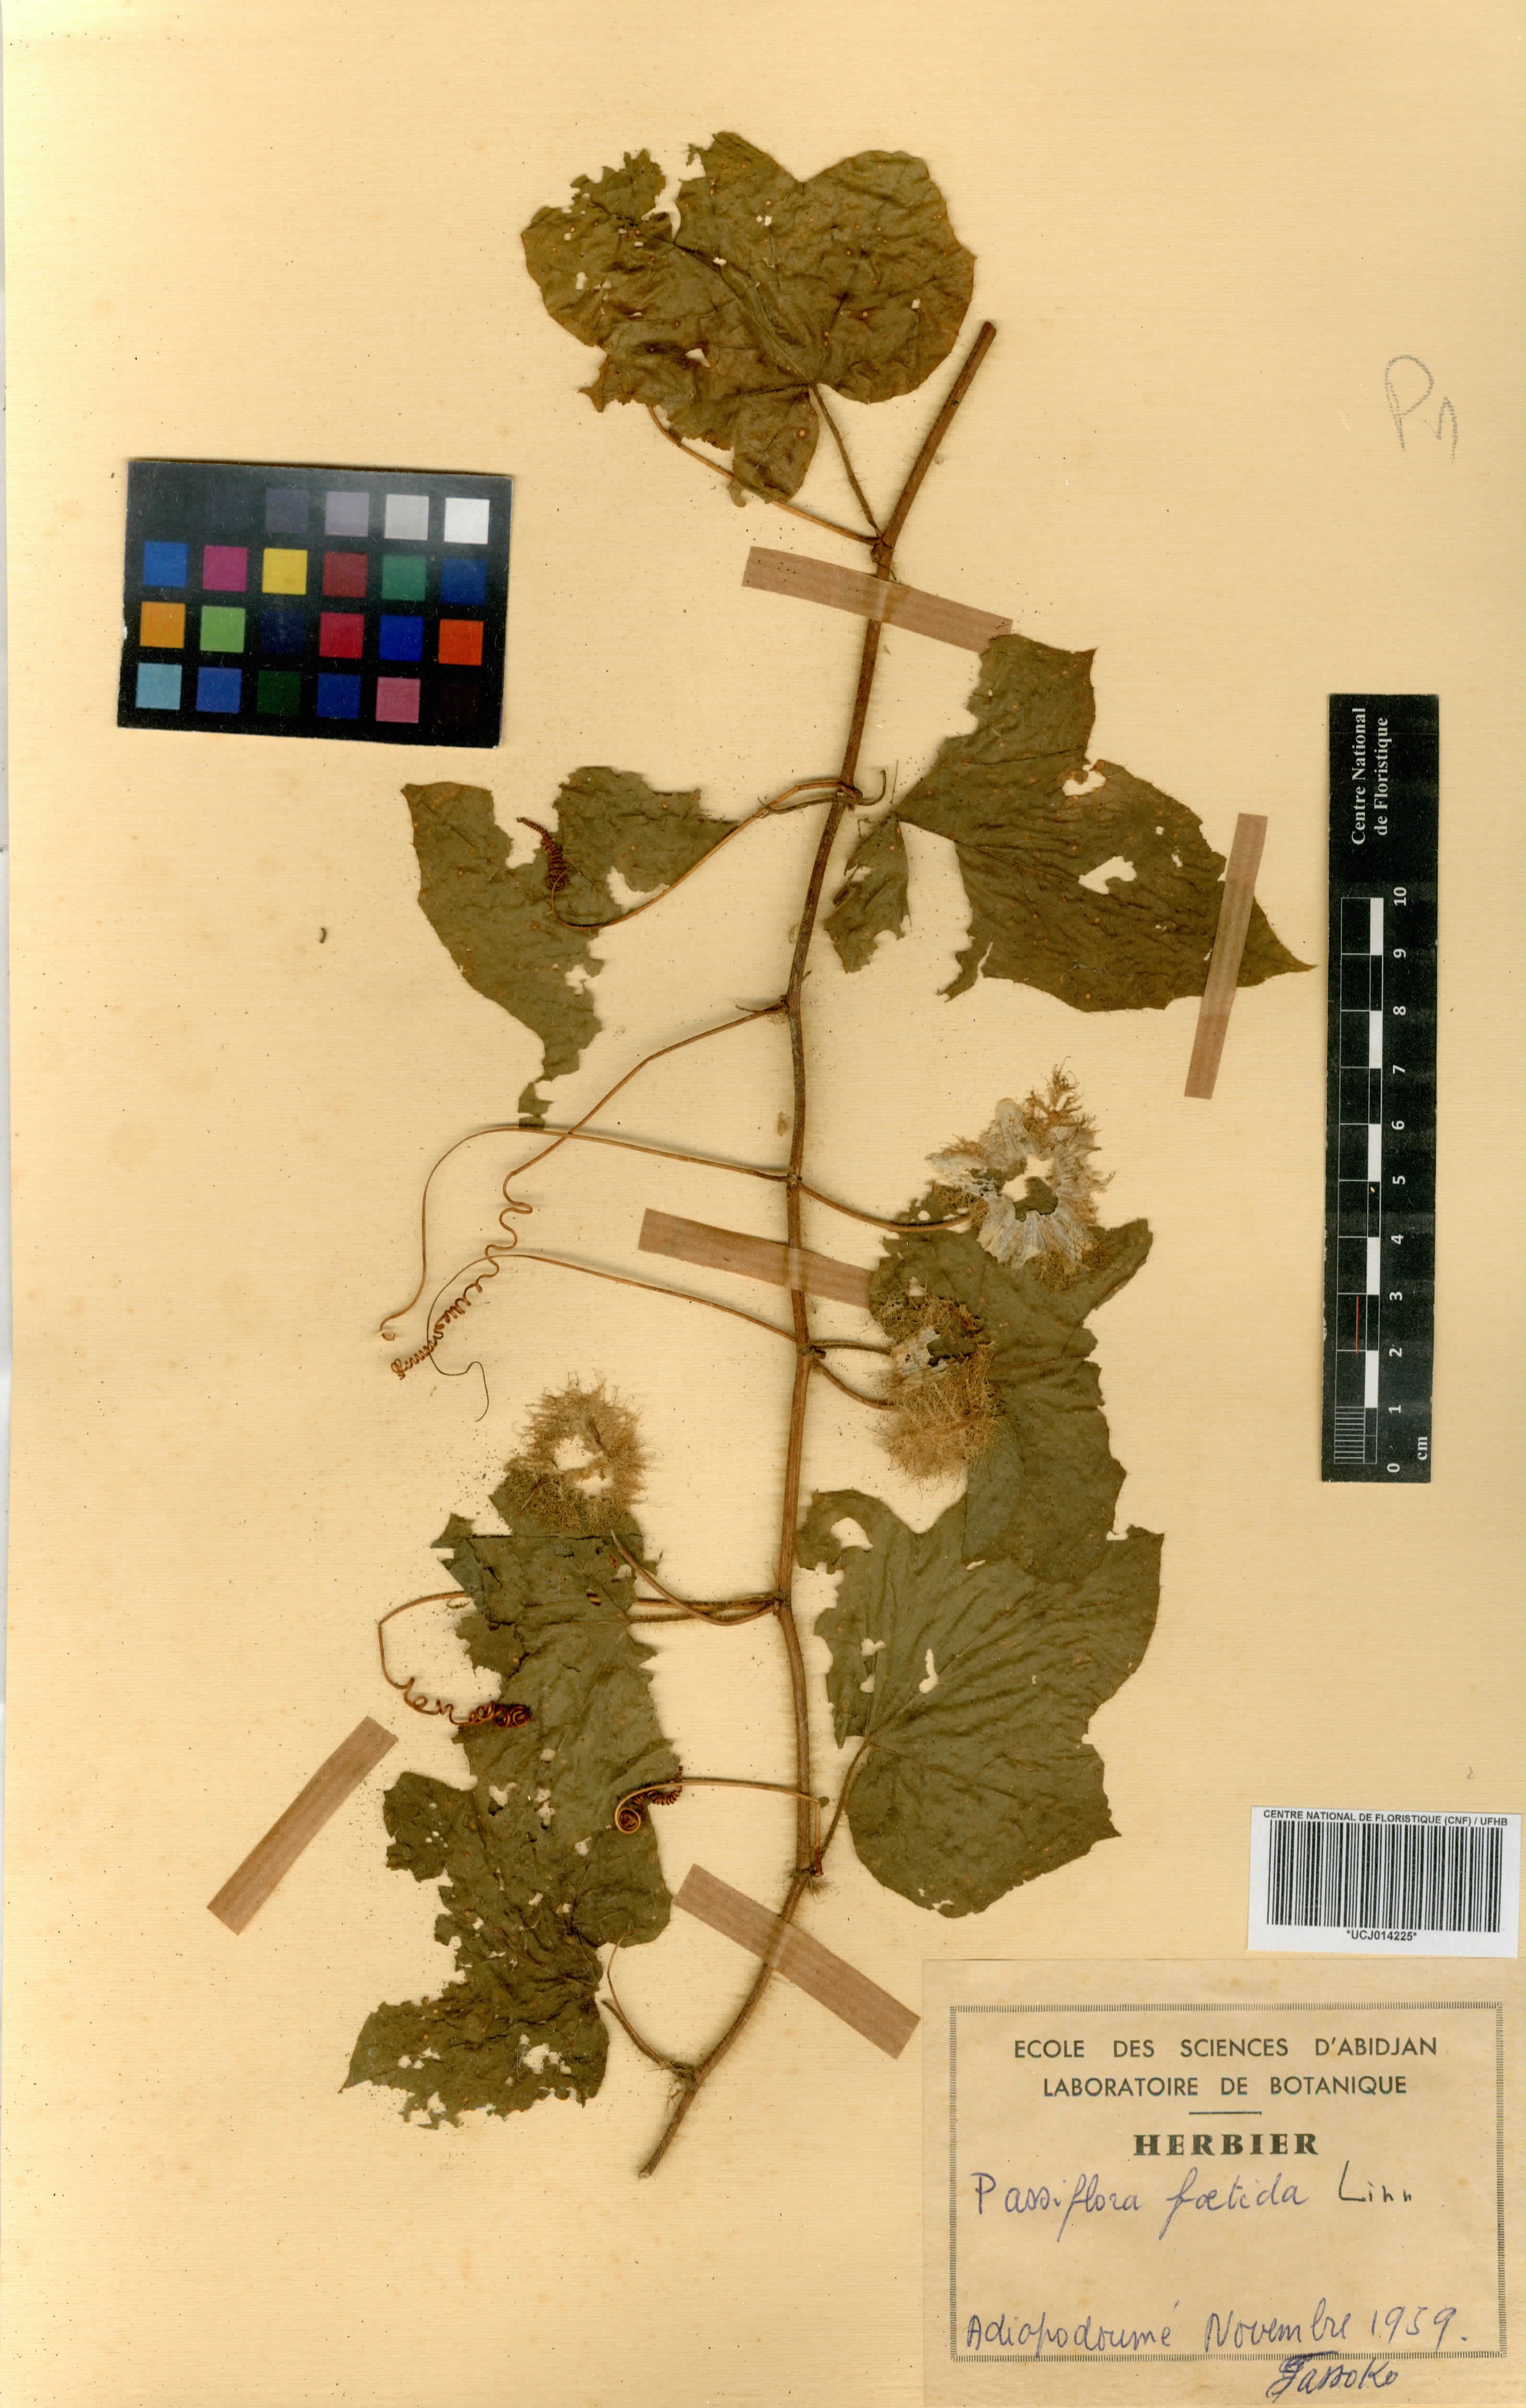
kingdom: Plantae
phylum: Tracheophyta
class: Magnoliopsida
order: Malpighiales
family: Passifloraceae
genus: Passiflora
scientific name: Passiflora foetida
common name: Fetid passionflower
